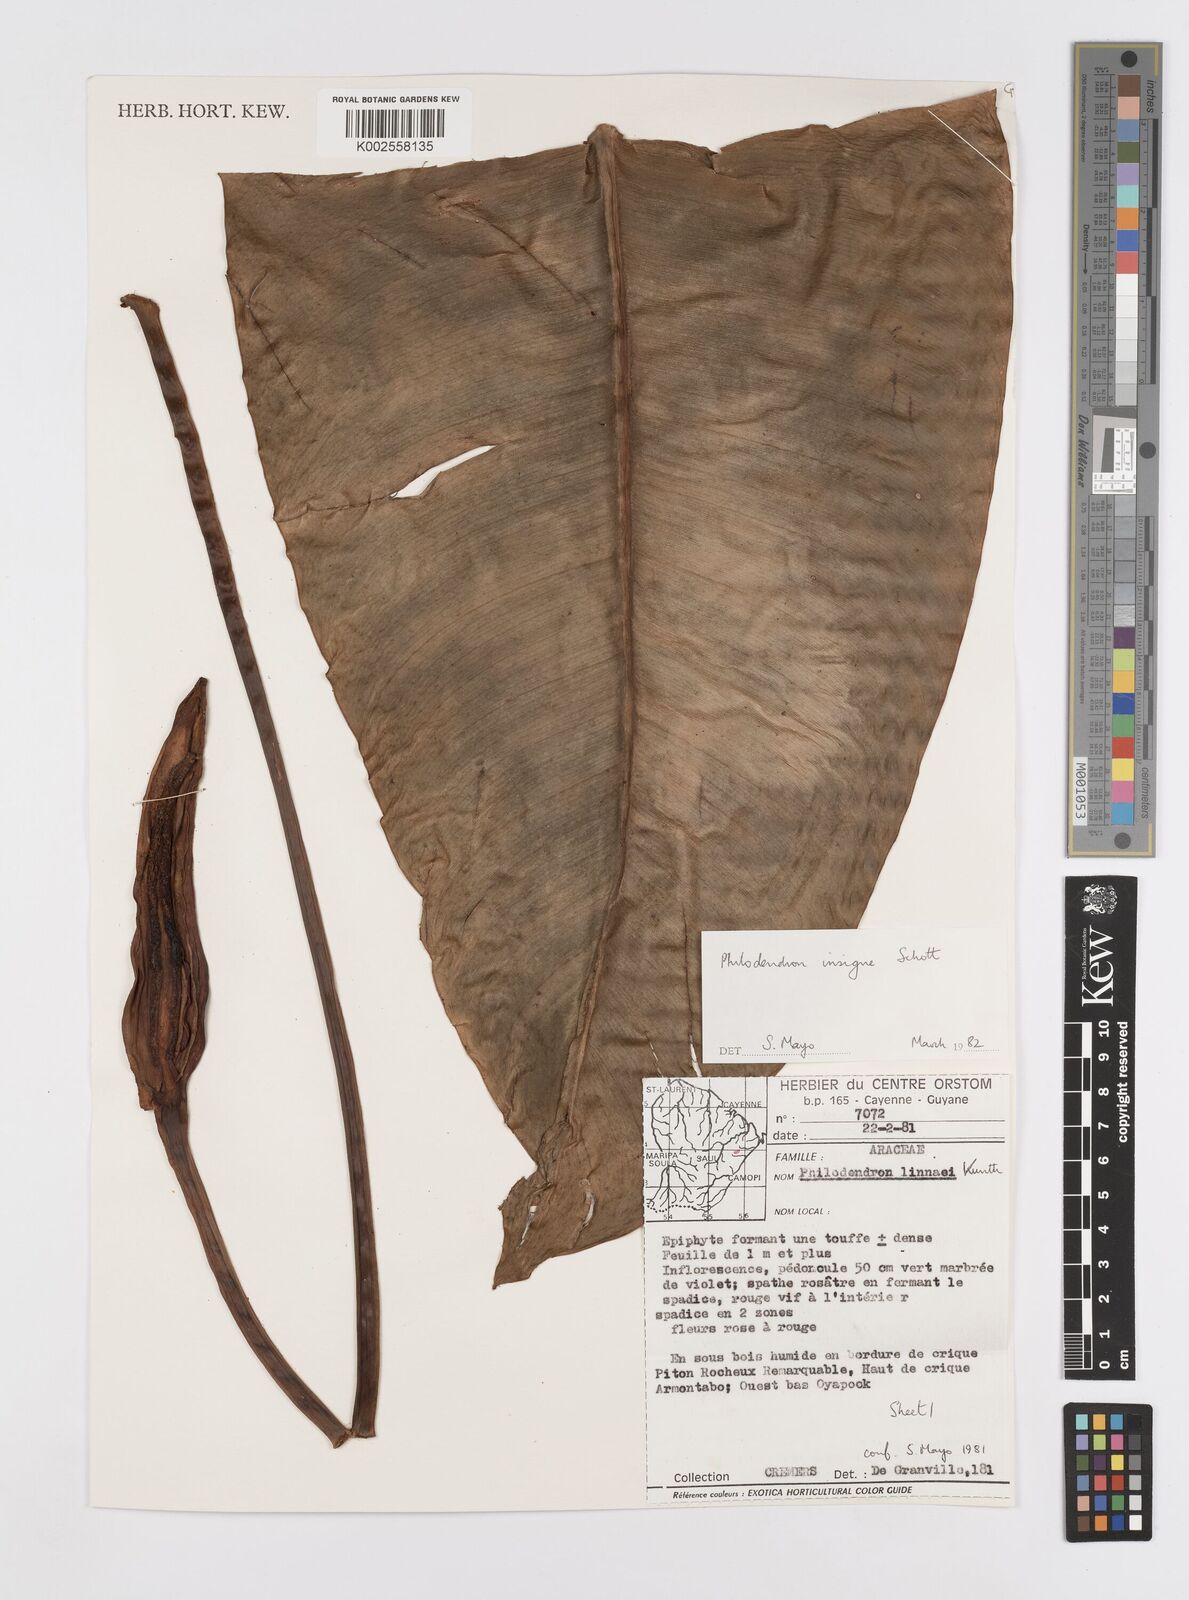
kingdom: Plantae
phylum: Tracheophyta
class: Liliopsida
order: Alismatales
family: Araceae
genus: Philodendron
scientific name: Philodendron insigne
